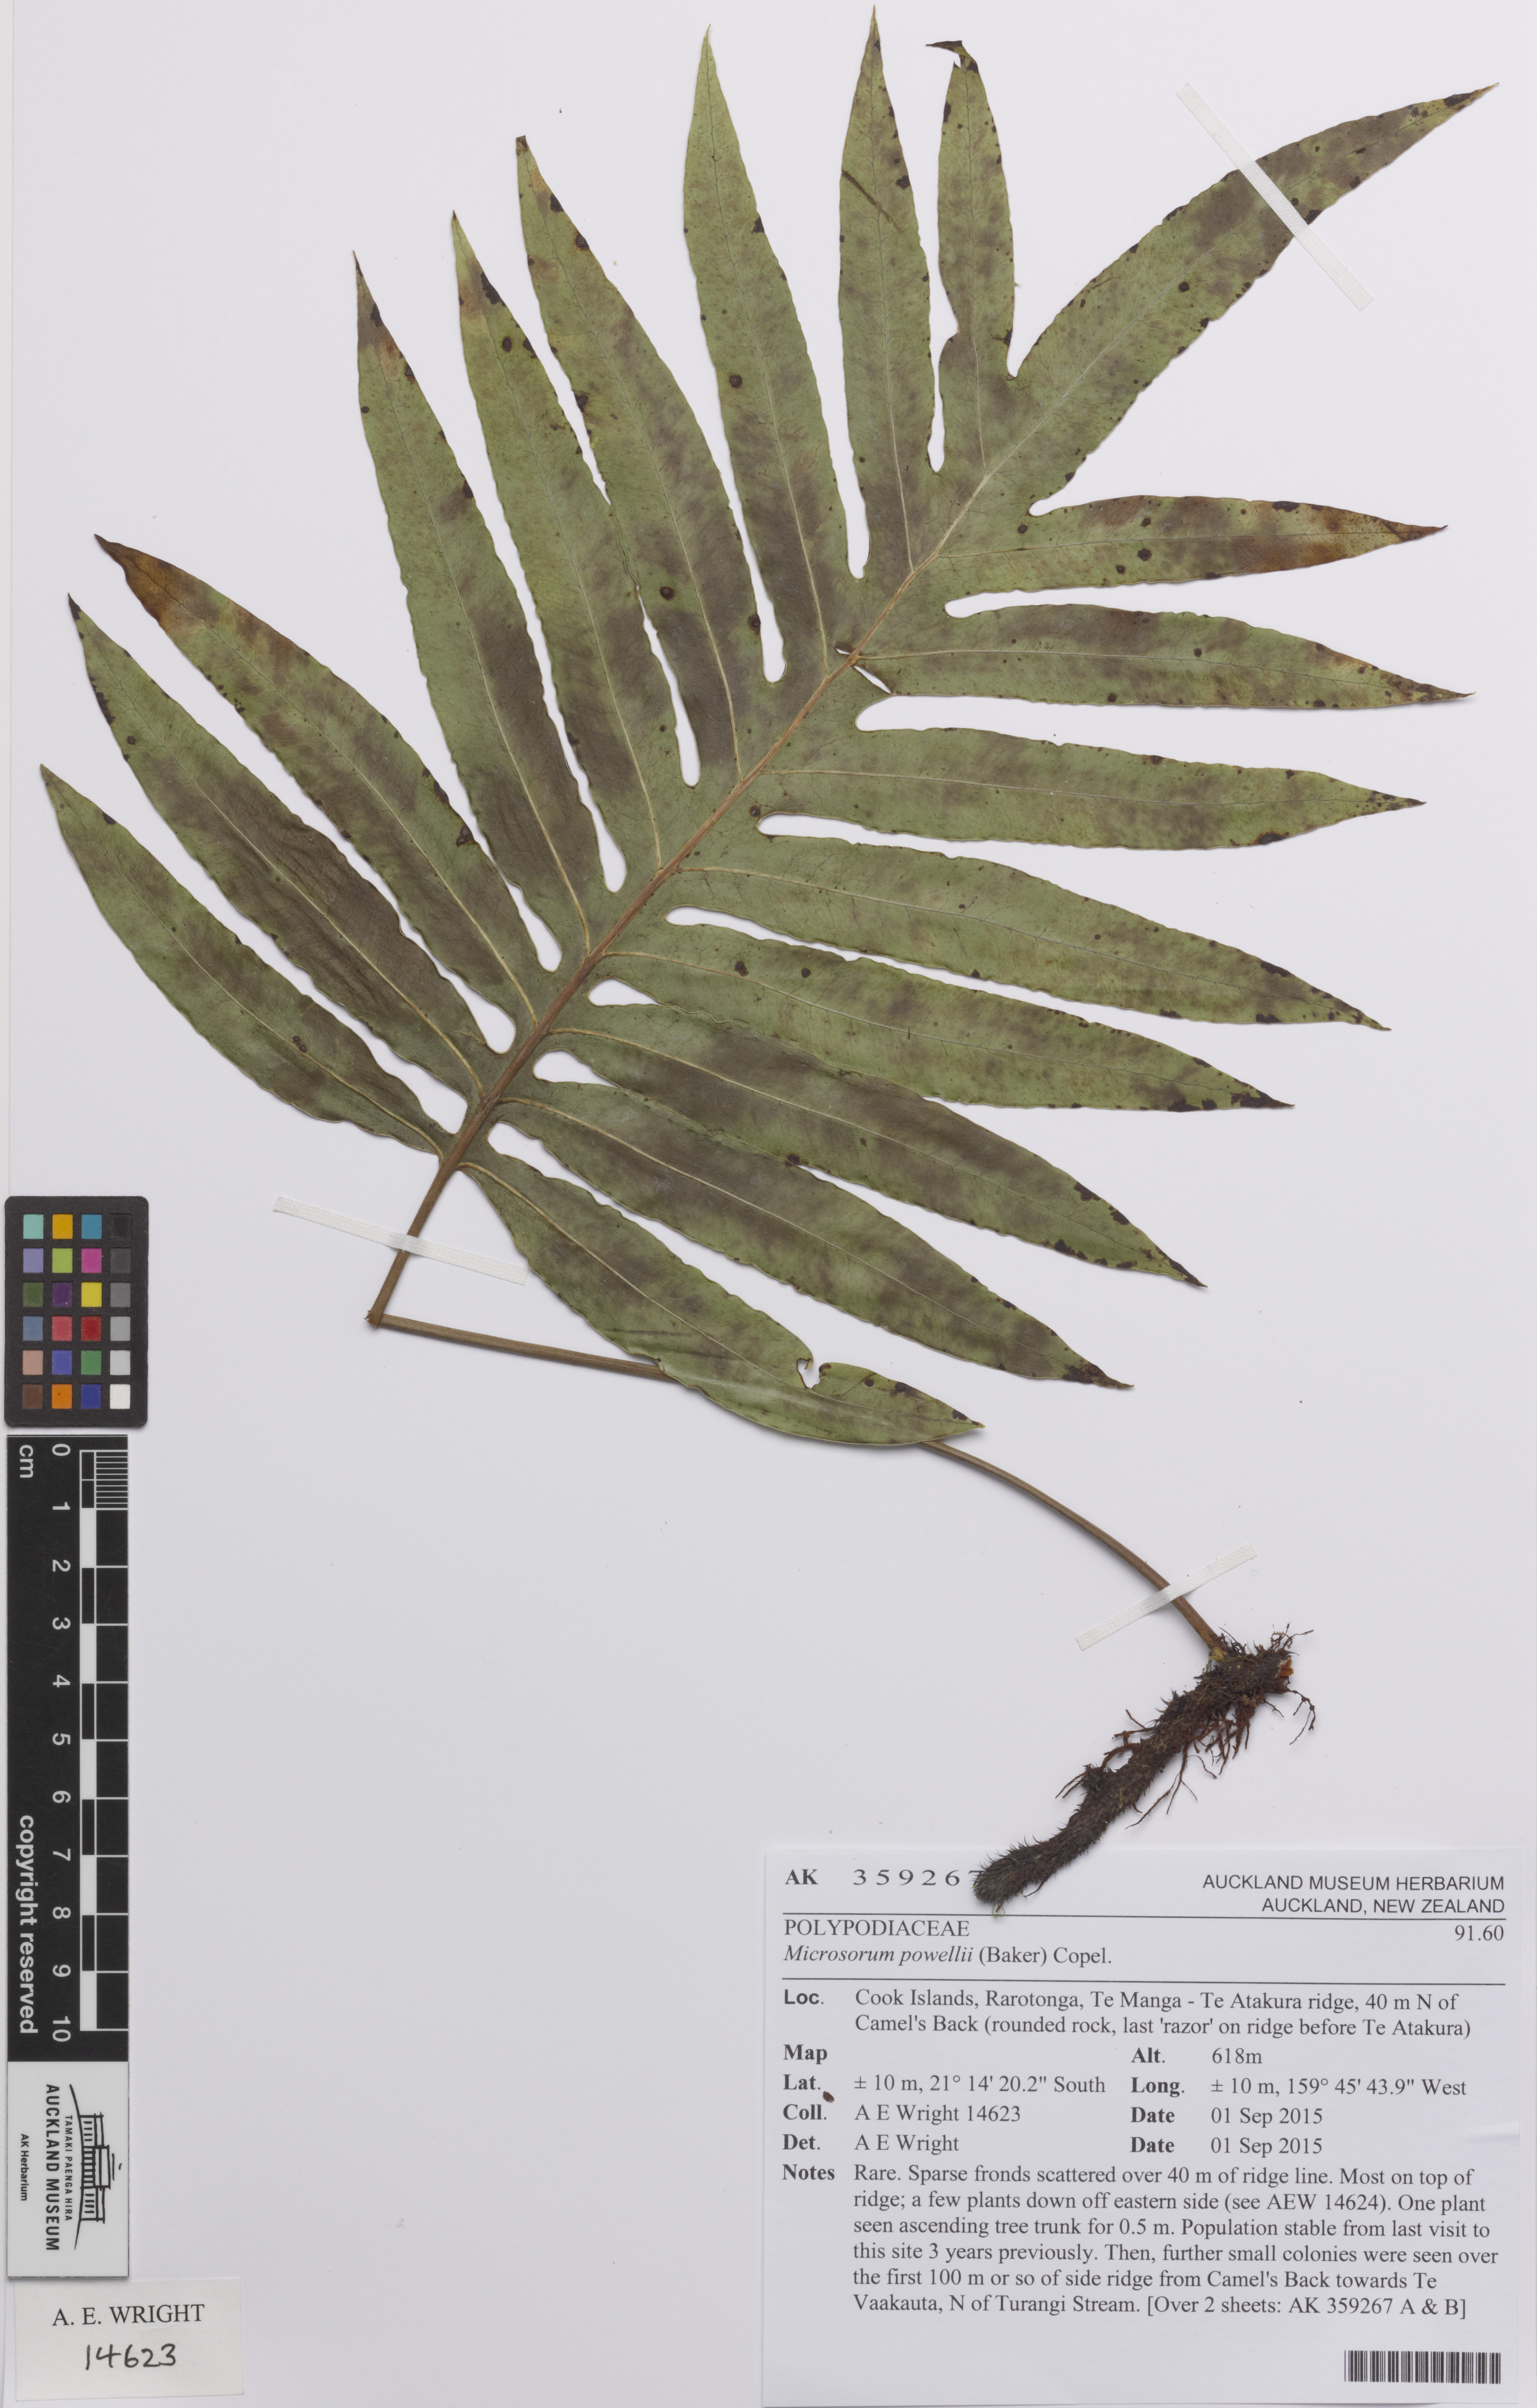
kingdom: Plantae
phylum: Tracheophyta
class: Polypodiopsida
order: Polypodiales
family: Polypodiaceae
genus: Microsorum
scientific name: Microsorum powellii
